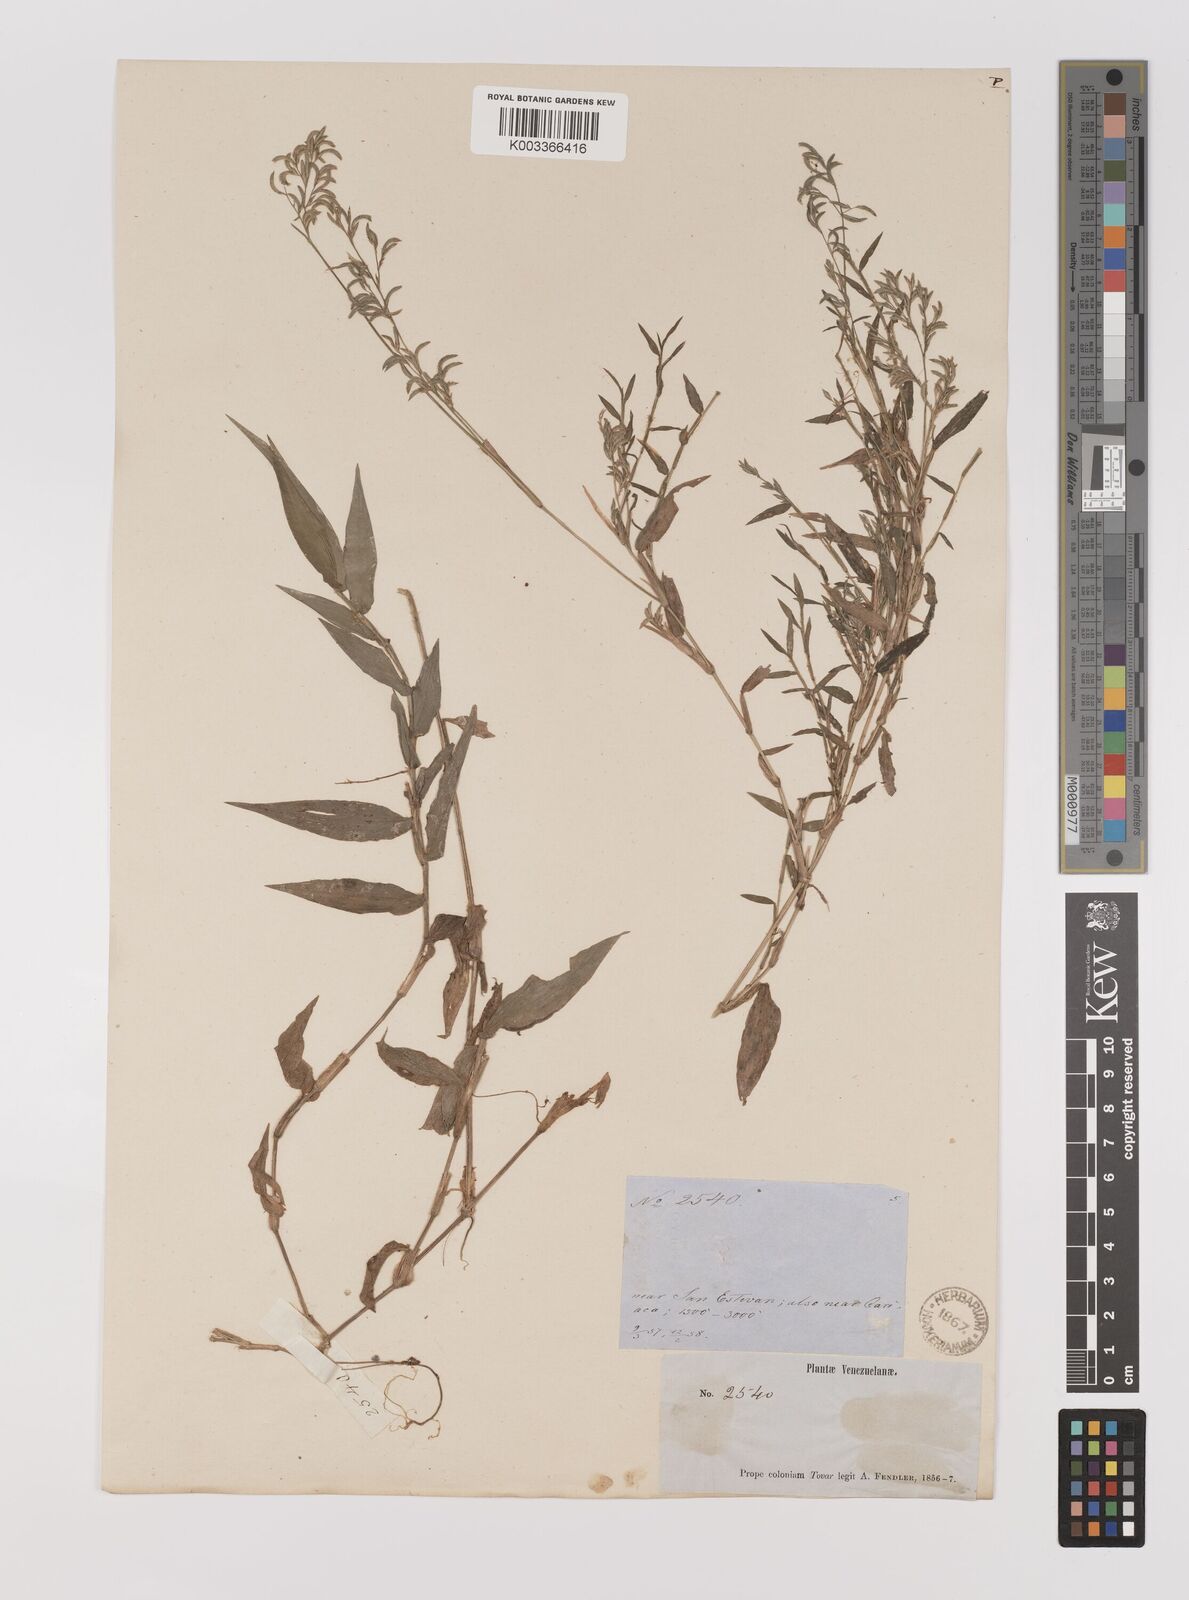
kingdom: Plantae
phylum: Tracheophyta
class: Liliopsida
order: Poales
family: Poaceae
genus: Ichnanthus
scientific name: Ichnanthus pallens
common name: Water grass
